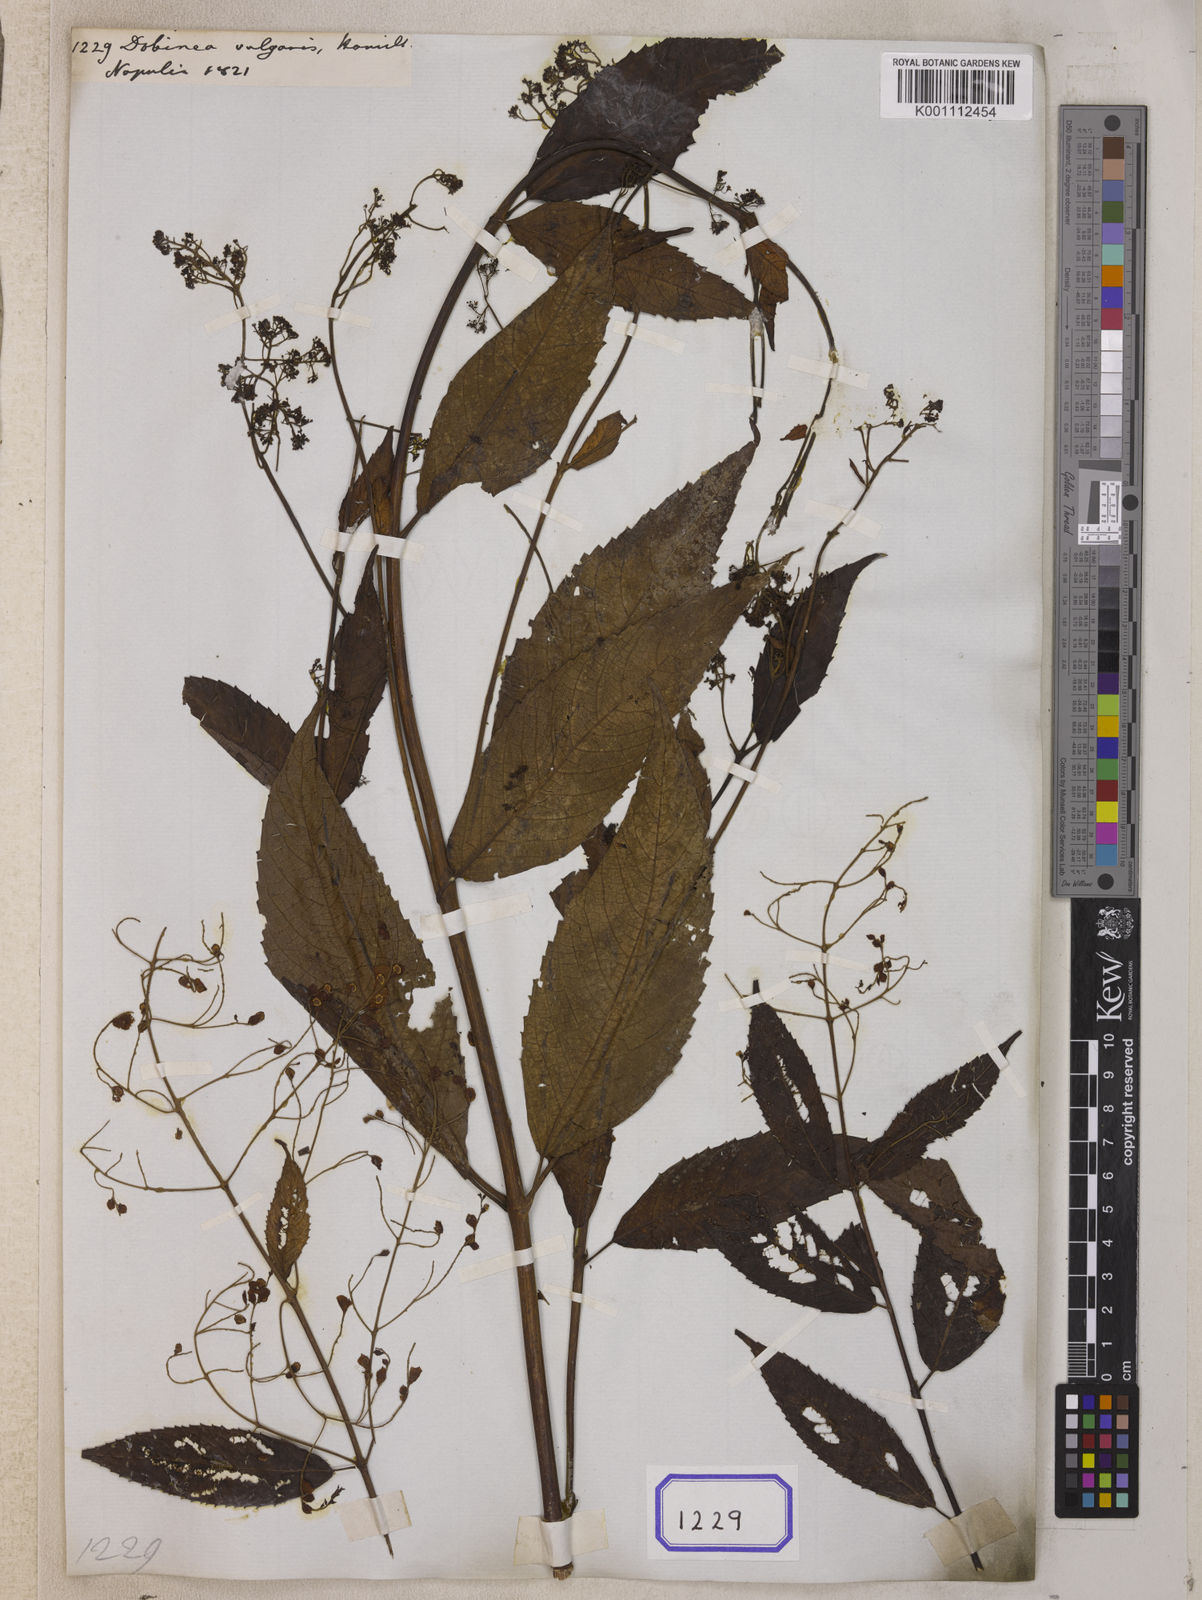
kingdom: Plantae
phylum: Tracheophyta
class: Magnoliopsida
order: Sapindales
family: Anacardiaceae
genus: Dobinea
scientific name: Dobinea
